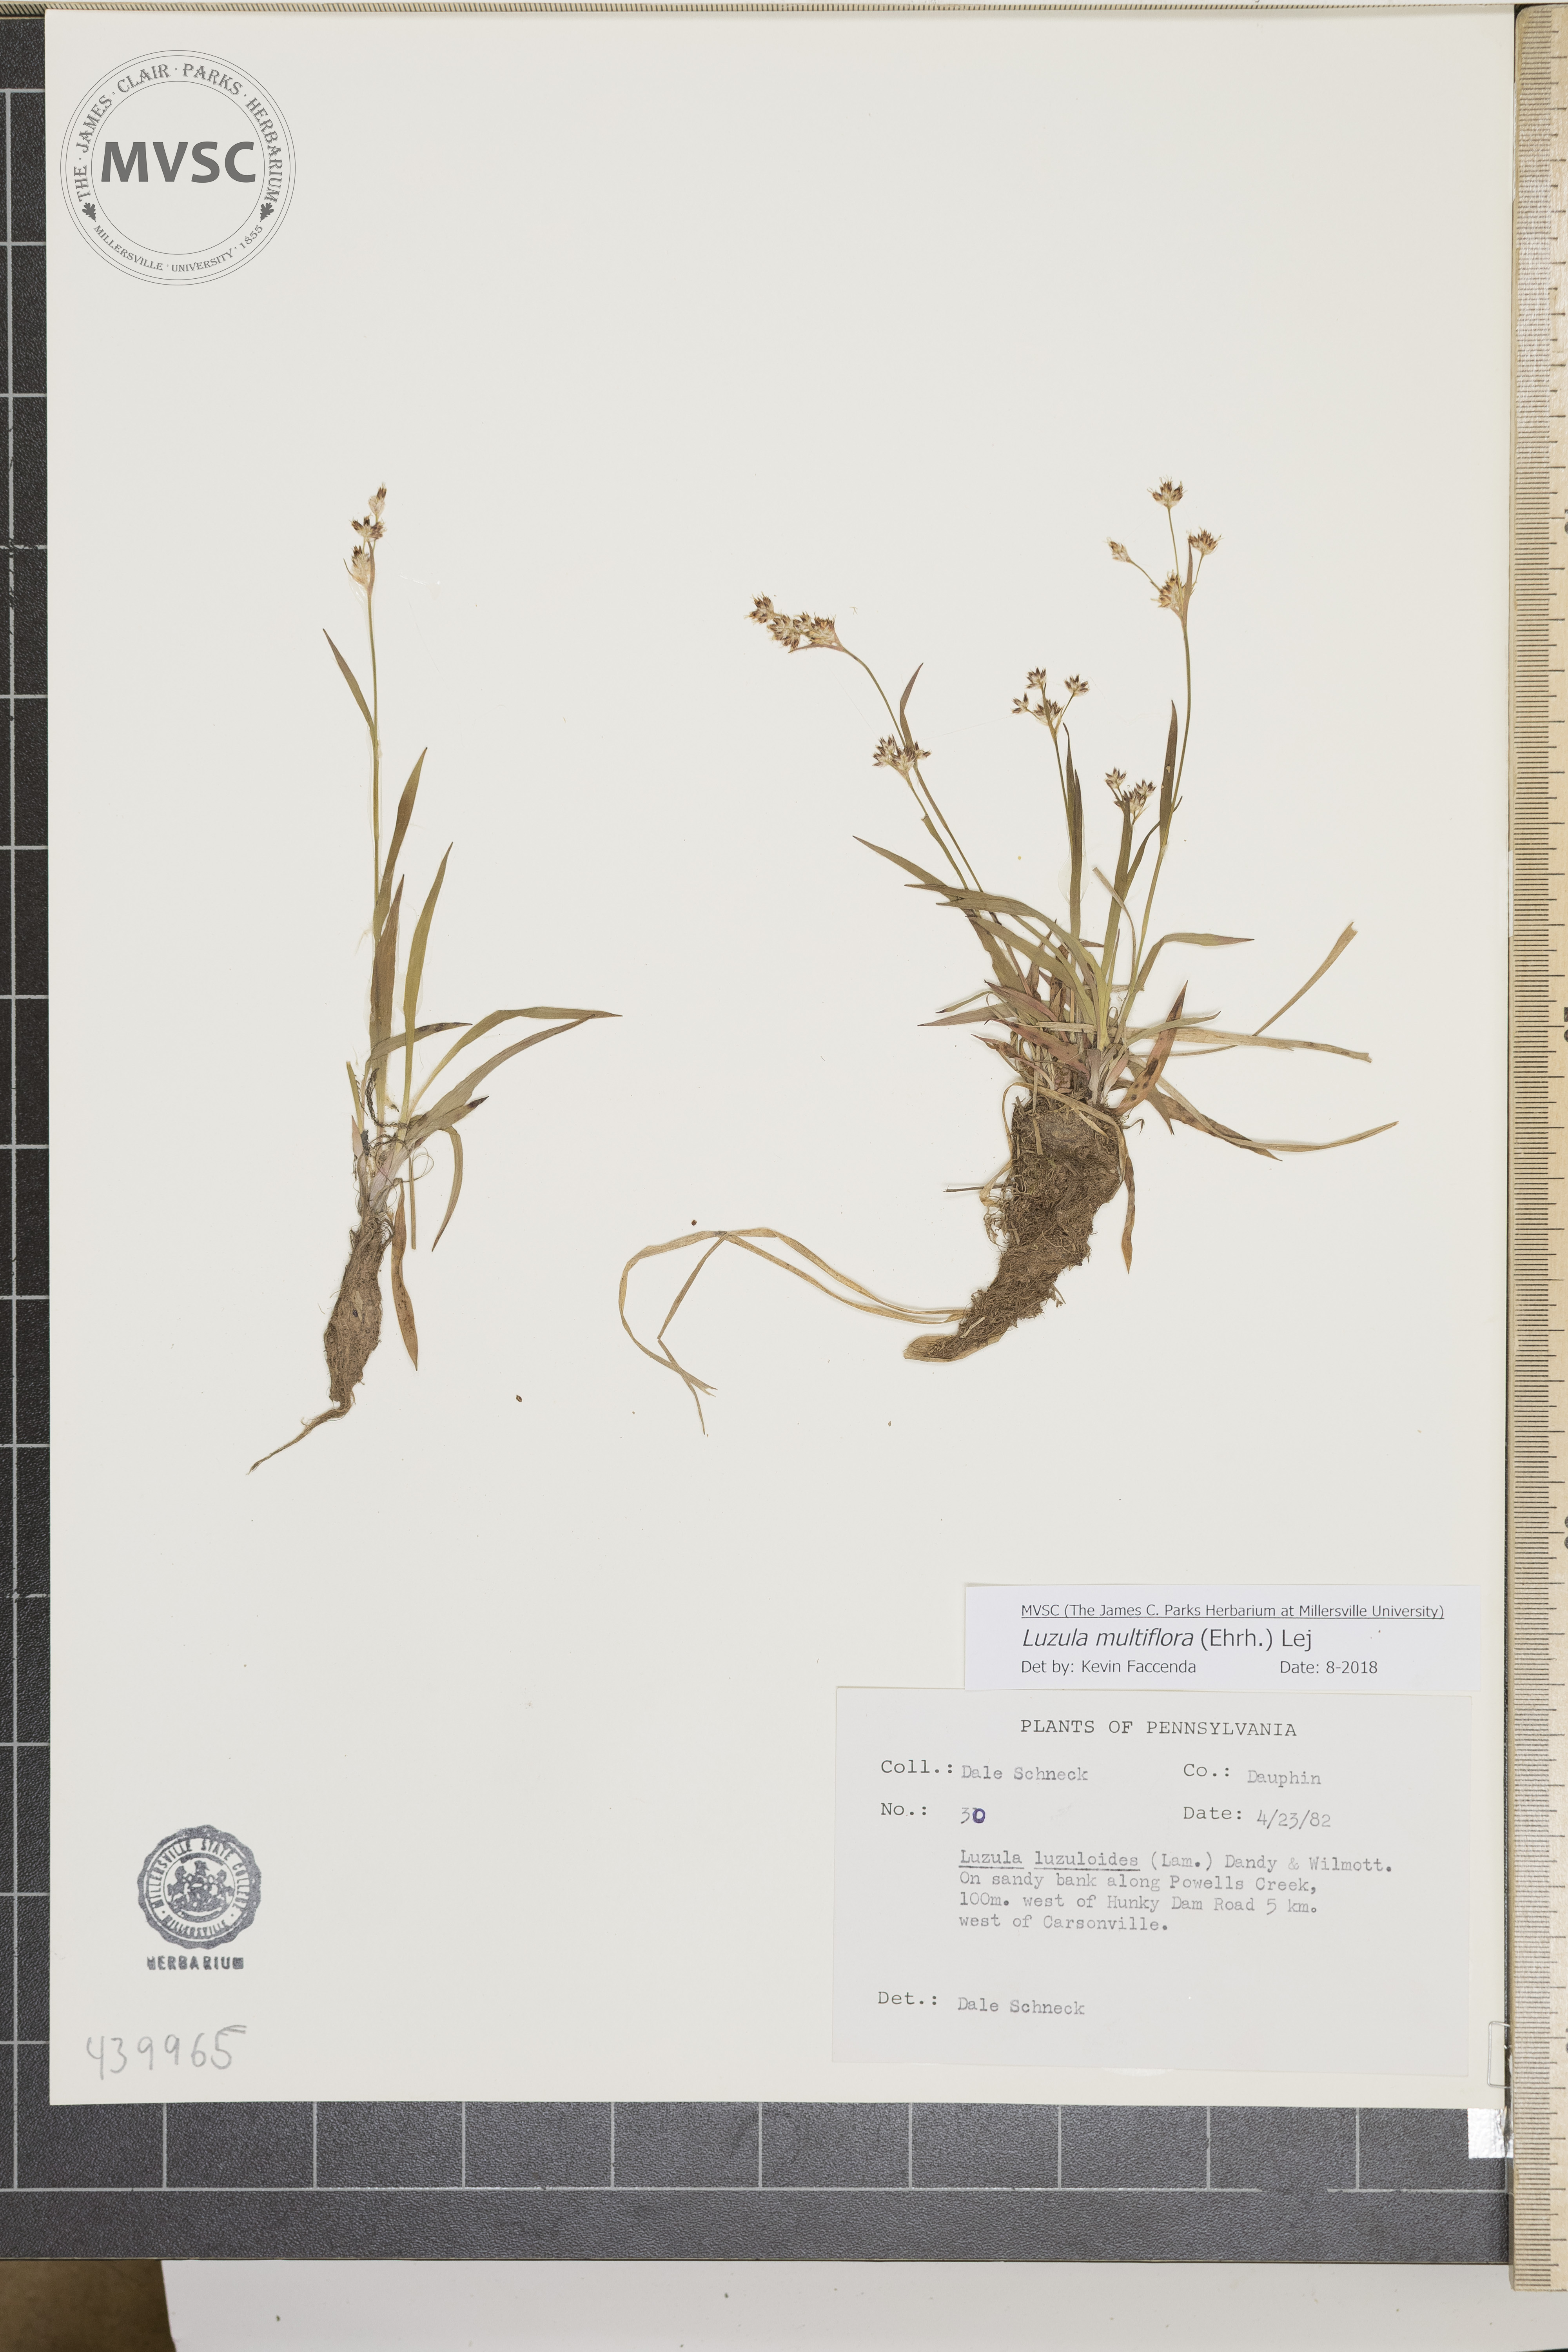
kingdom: Plantae
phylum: Tracheophyta
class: Liliopsida
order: Poales
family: Juncaceae
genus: Luzula
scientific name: Luzula multiflora
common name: Heath wood-rush
